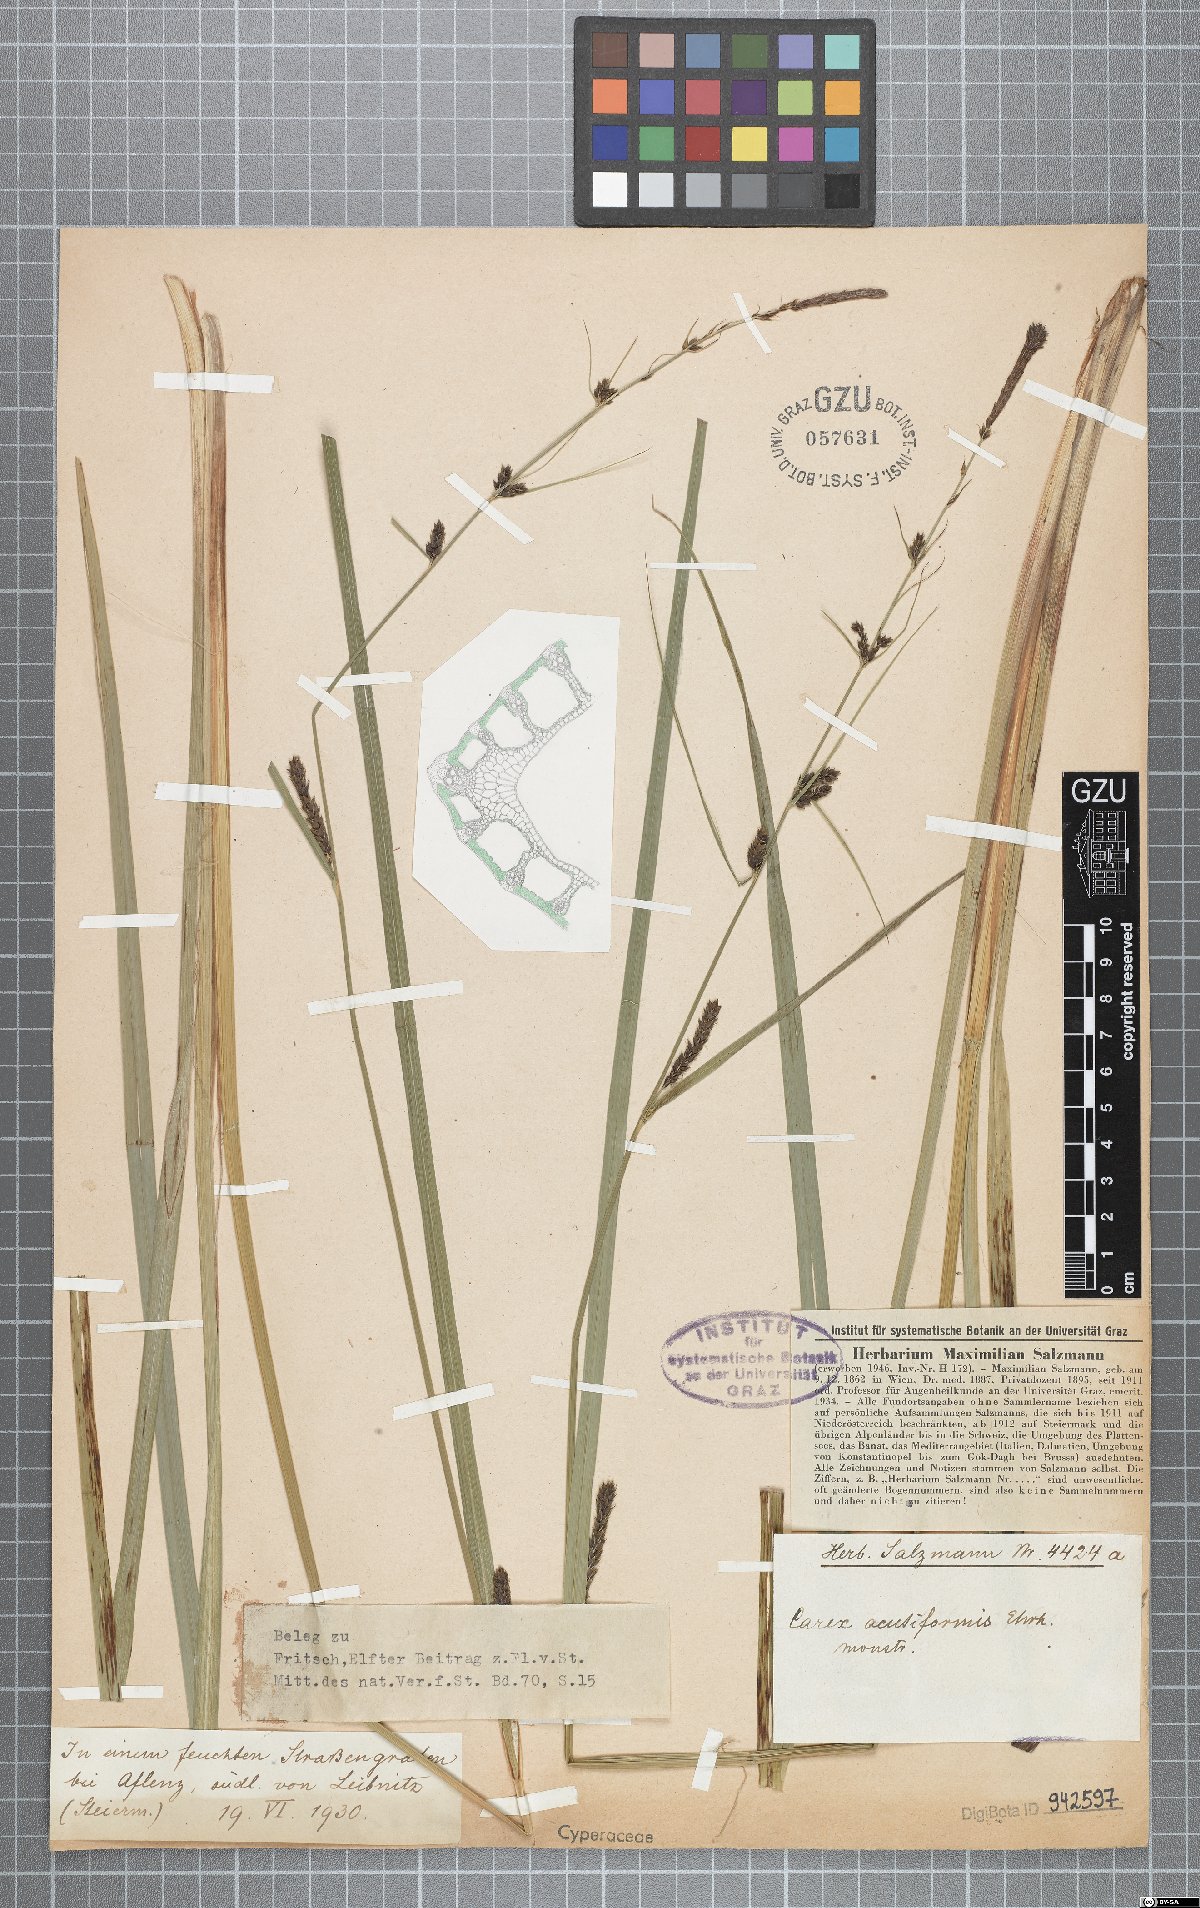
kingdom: Plantae
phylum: Tracheophyta
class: Liliopsida
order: Poales
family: Cyperaceae
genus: Carex
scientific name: Carex acutiformis
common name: Lesser pond-sedge
